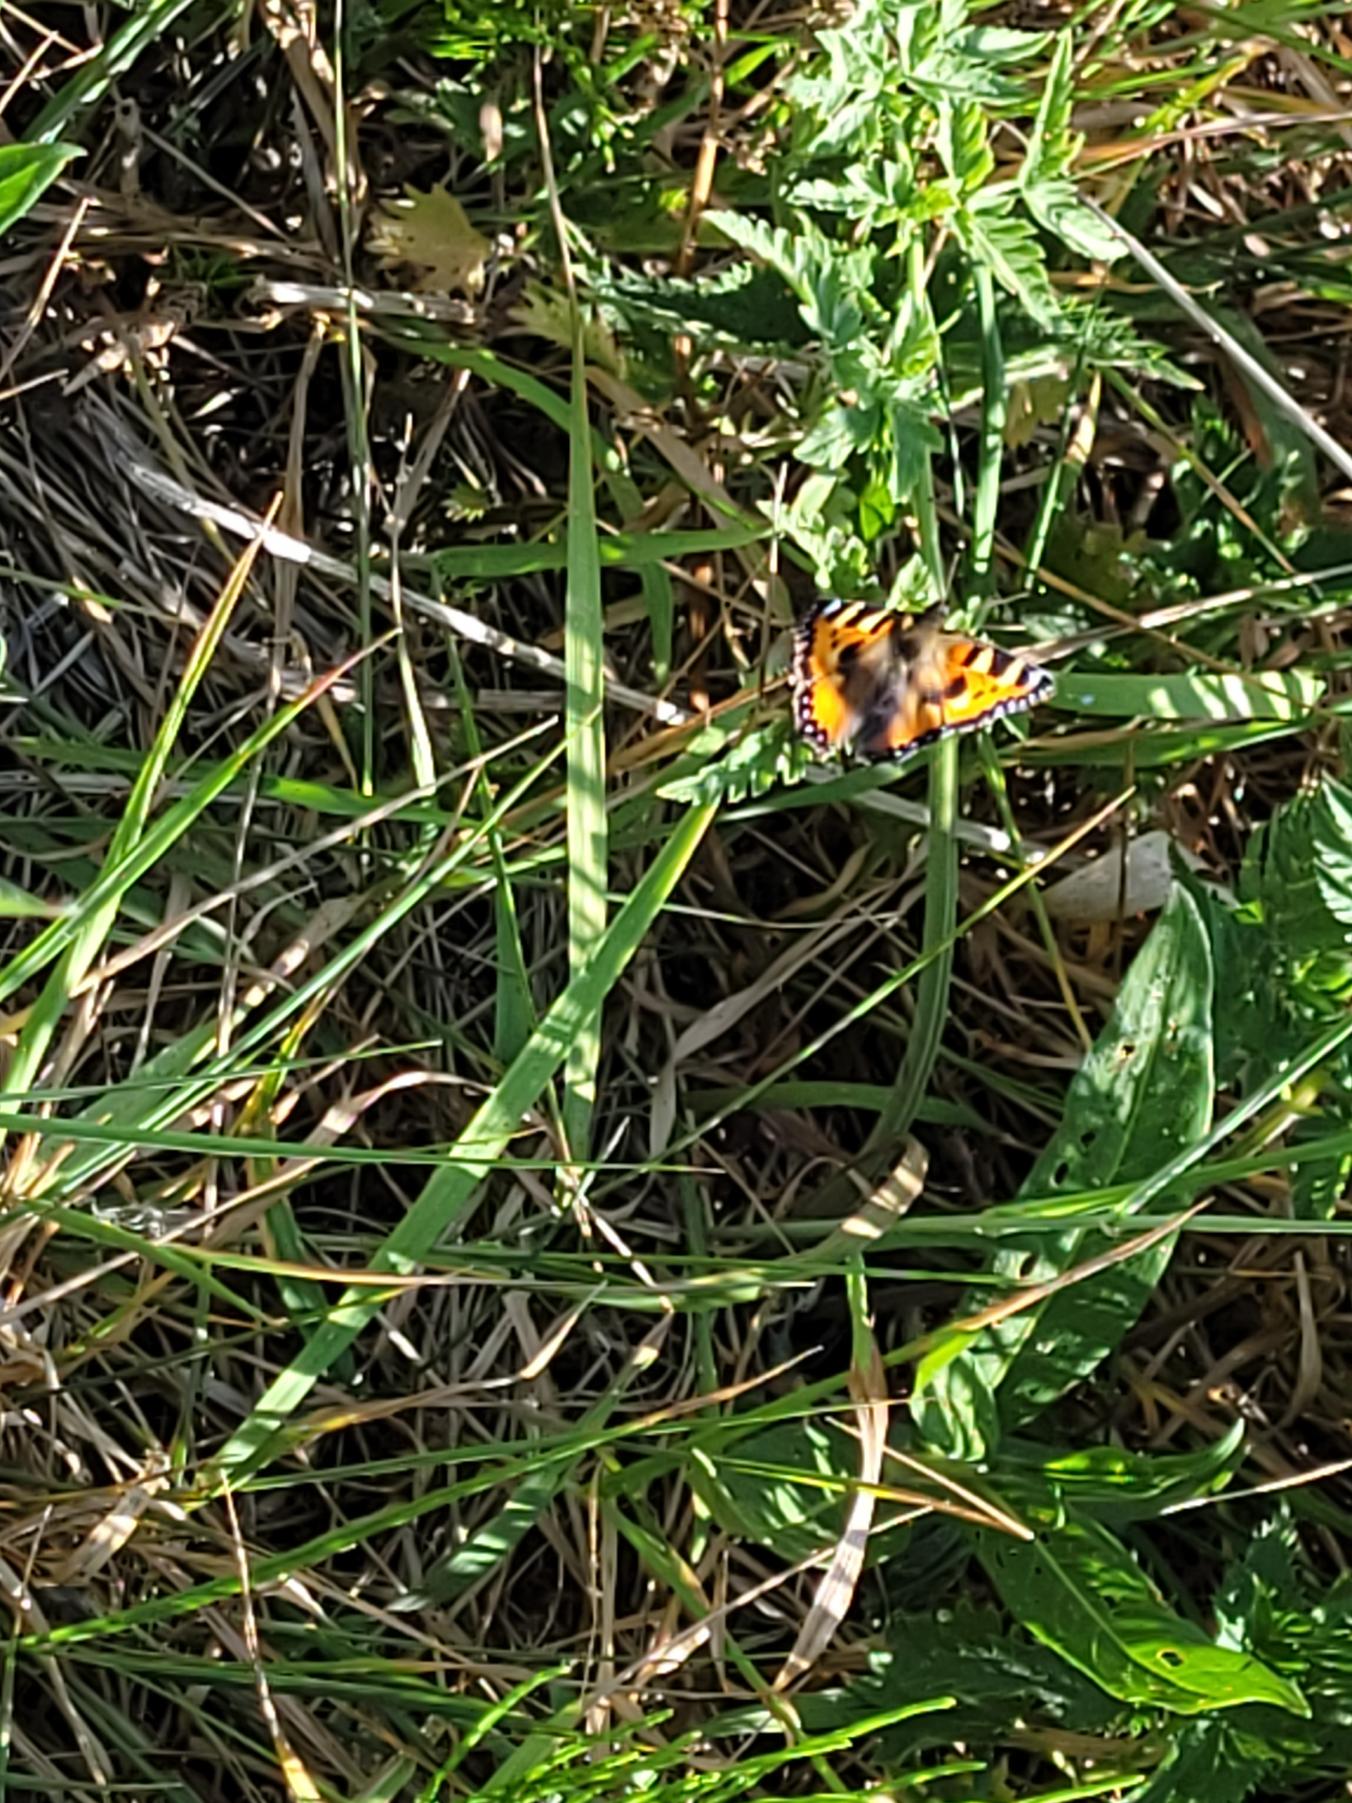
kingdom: Animalia
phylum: Arthropoda
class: Insecta
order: Lepidoptera
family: Nymphalidae
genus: Aglais
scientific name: Aglais urticae
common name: Nældens takvinge
